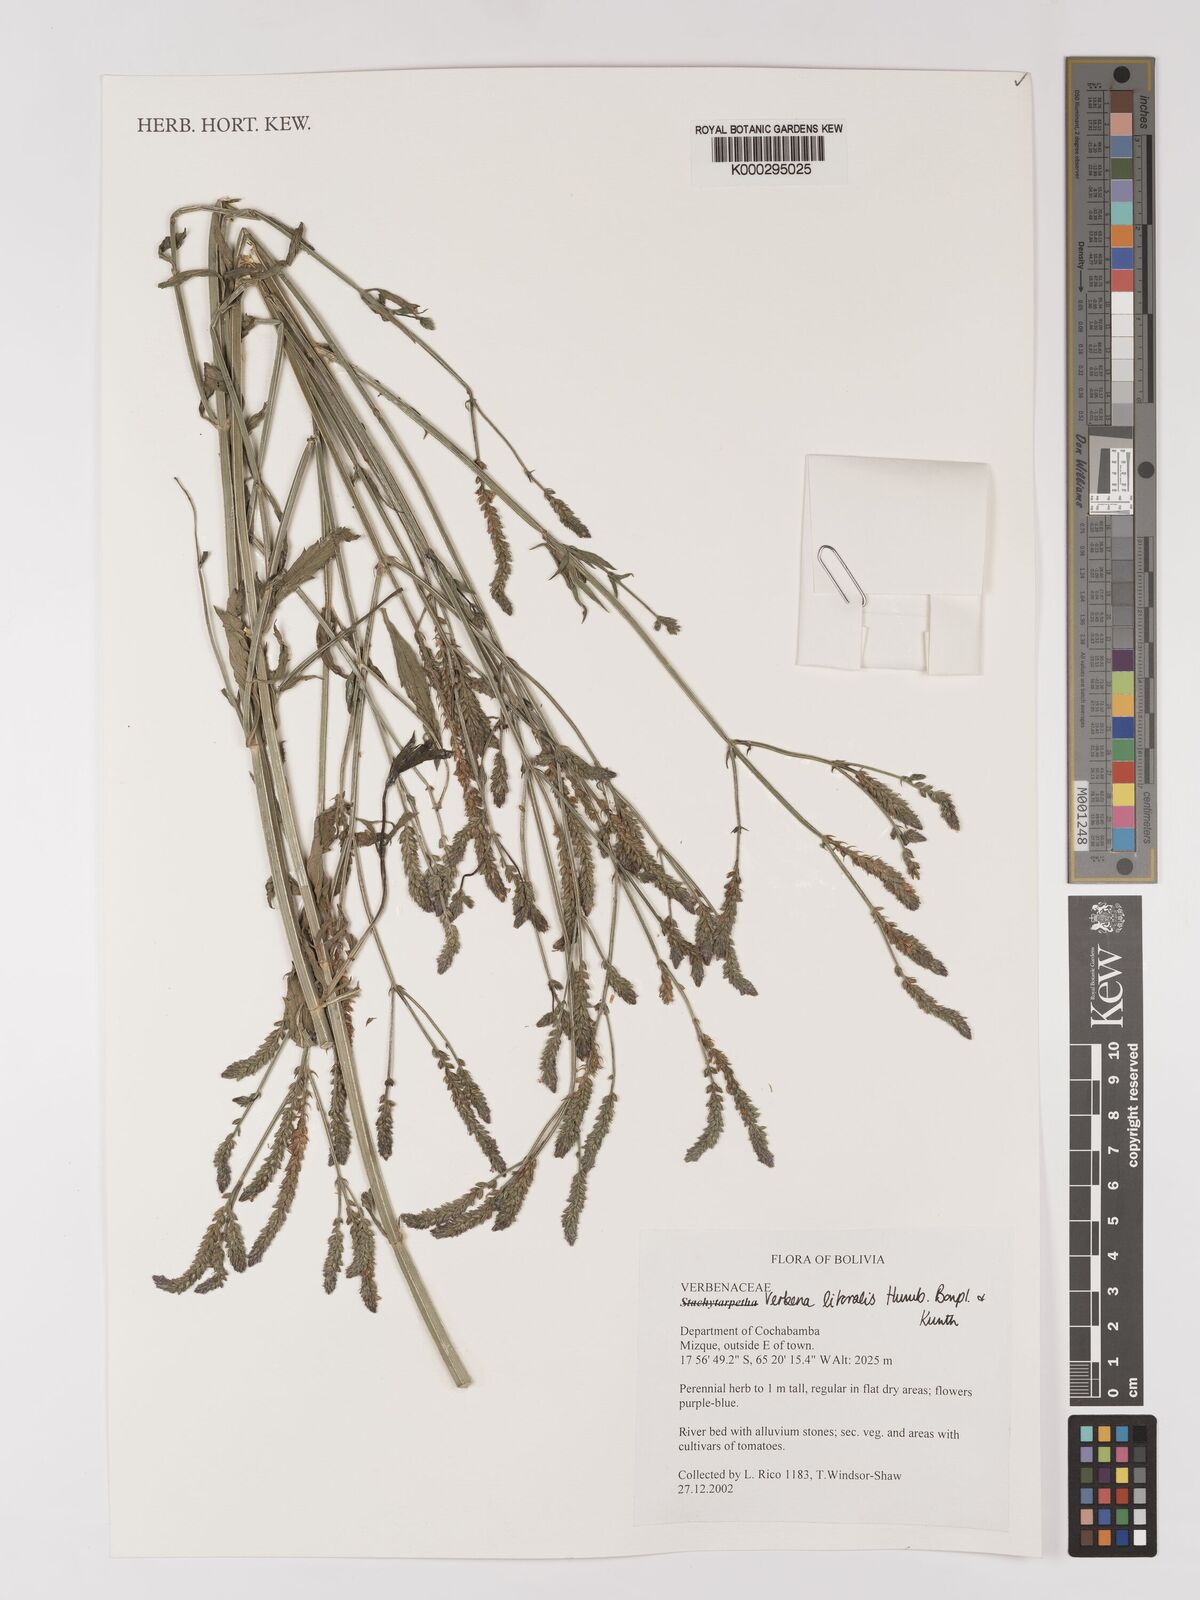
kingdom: Plantae
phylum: Tracheophyta
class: Magnoliopsida
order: Lamiales
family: Verbenaceae
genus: Verbena
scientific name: Verbena
